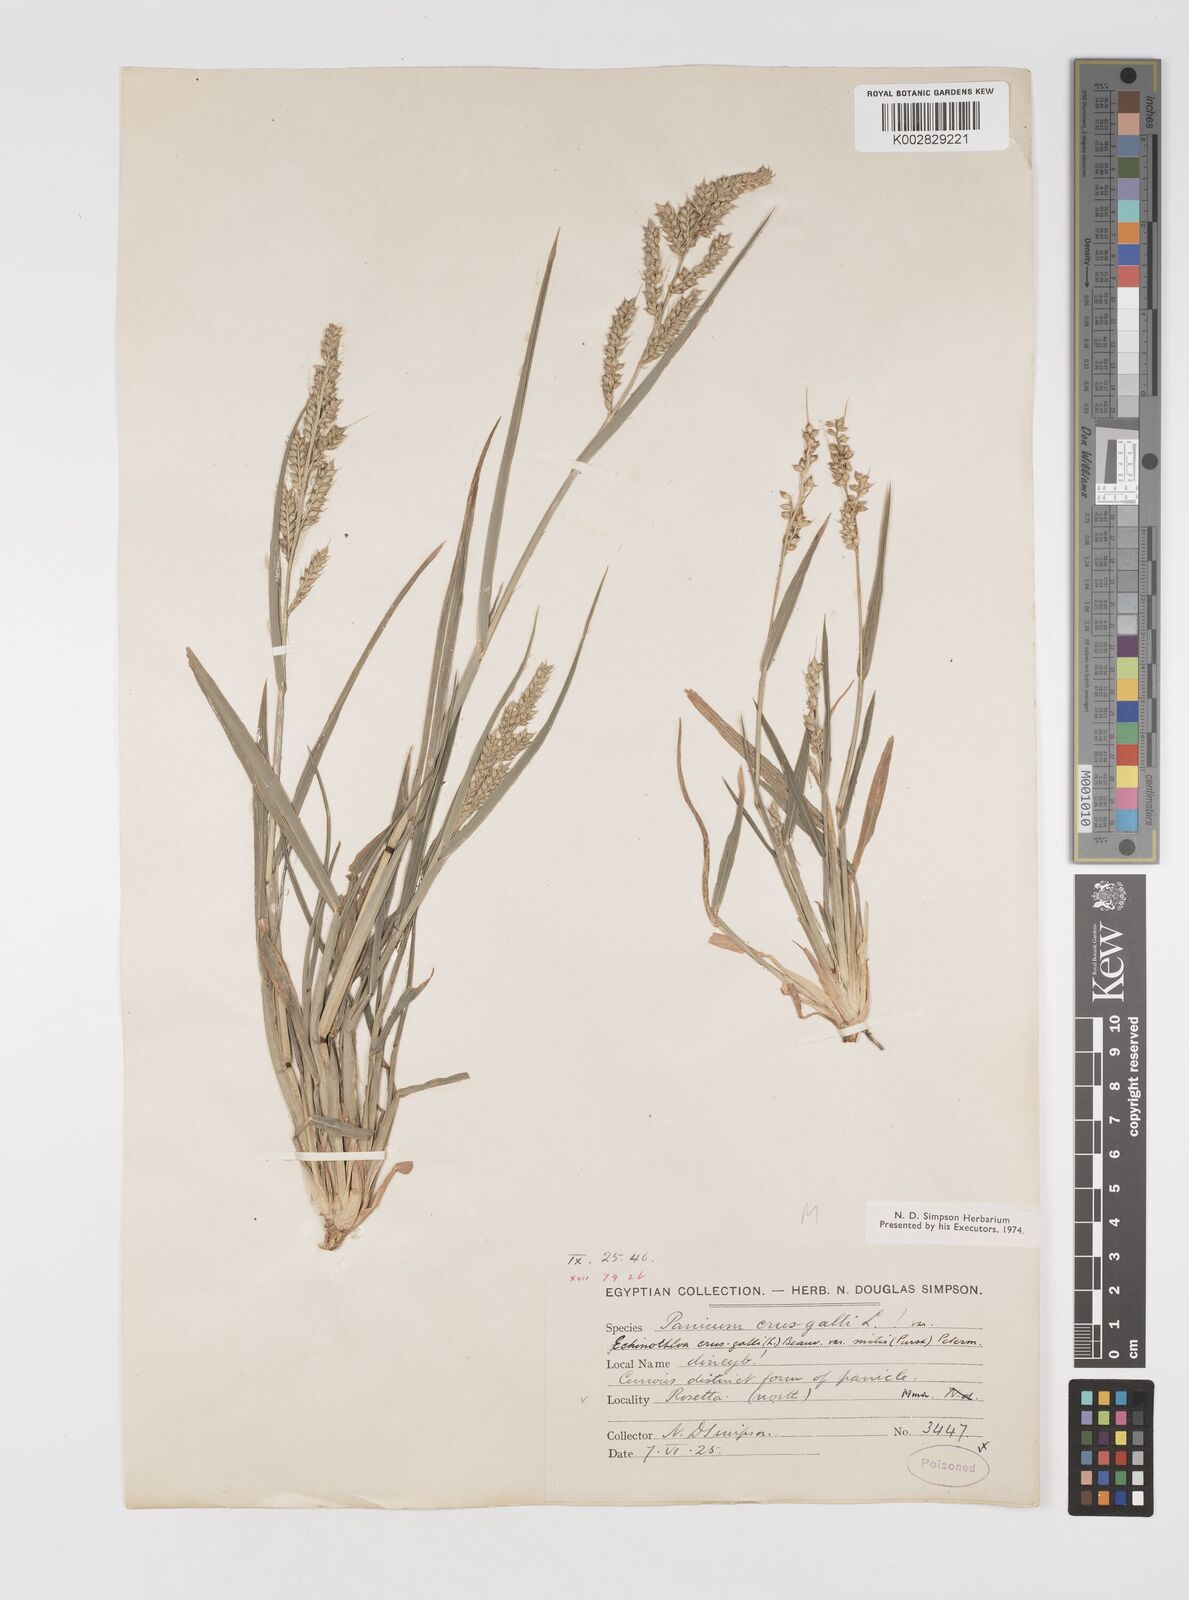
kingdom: Plantae
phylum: Tracheophyta
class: Liliopsida
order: Poales
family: Poaceae
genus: Echinochloa
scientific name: Echinochloa crus-galli
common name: Cockspur
